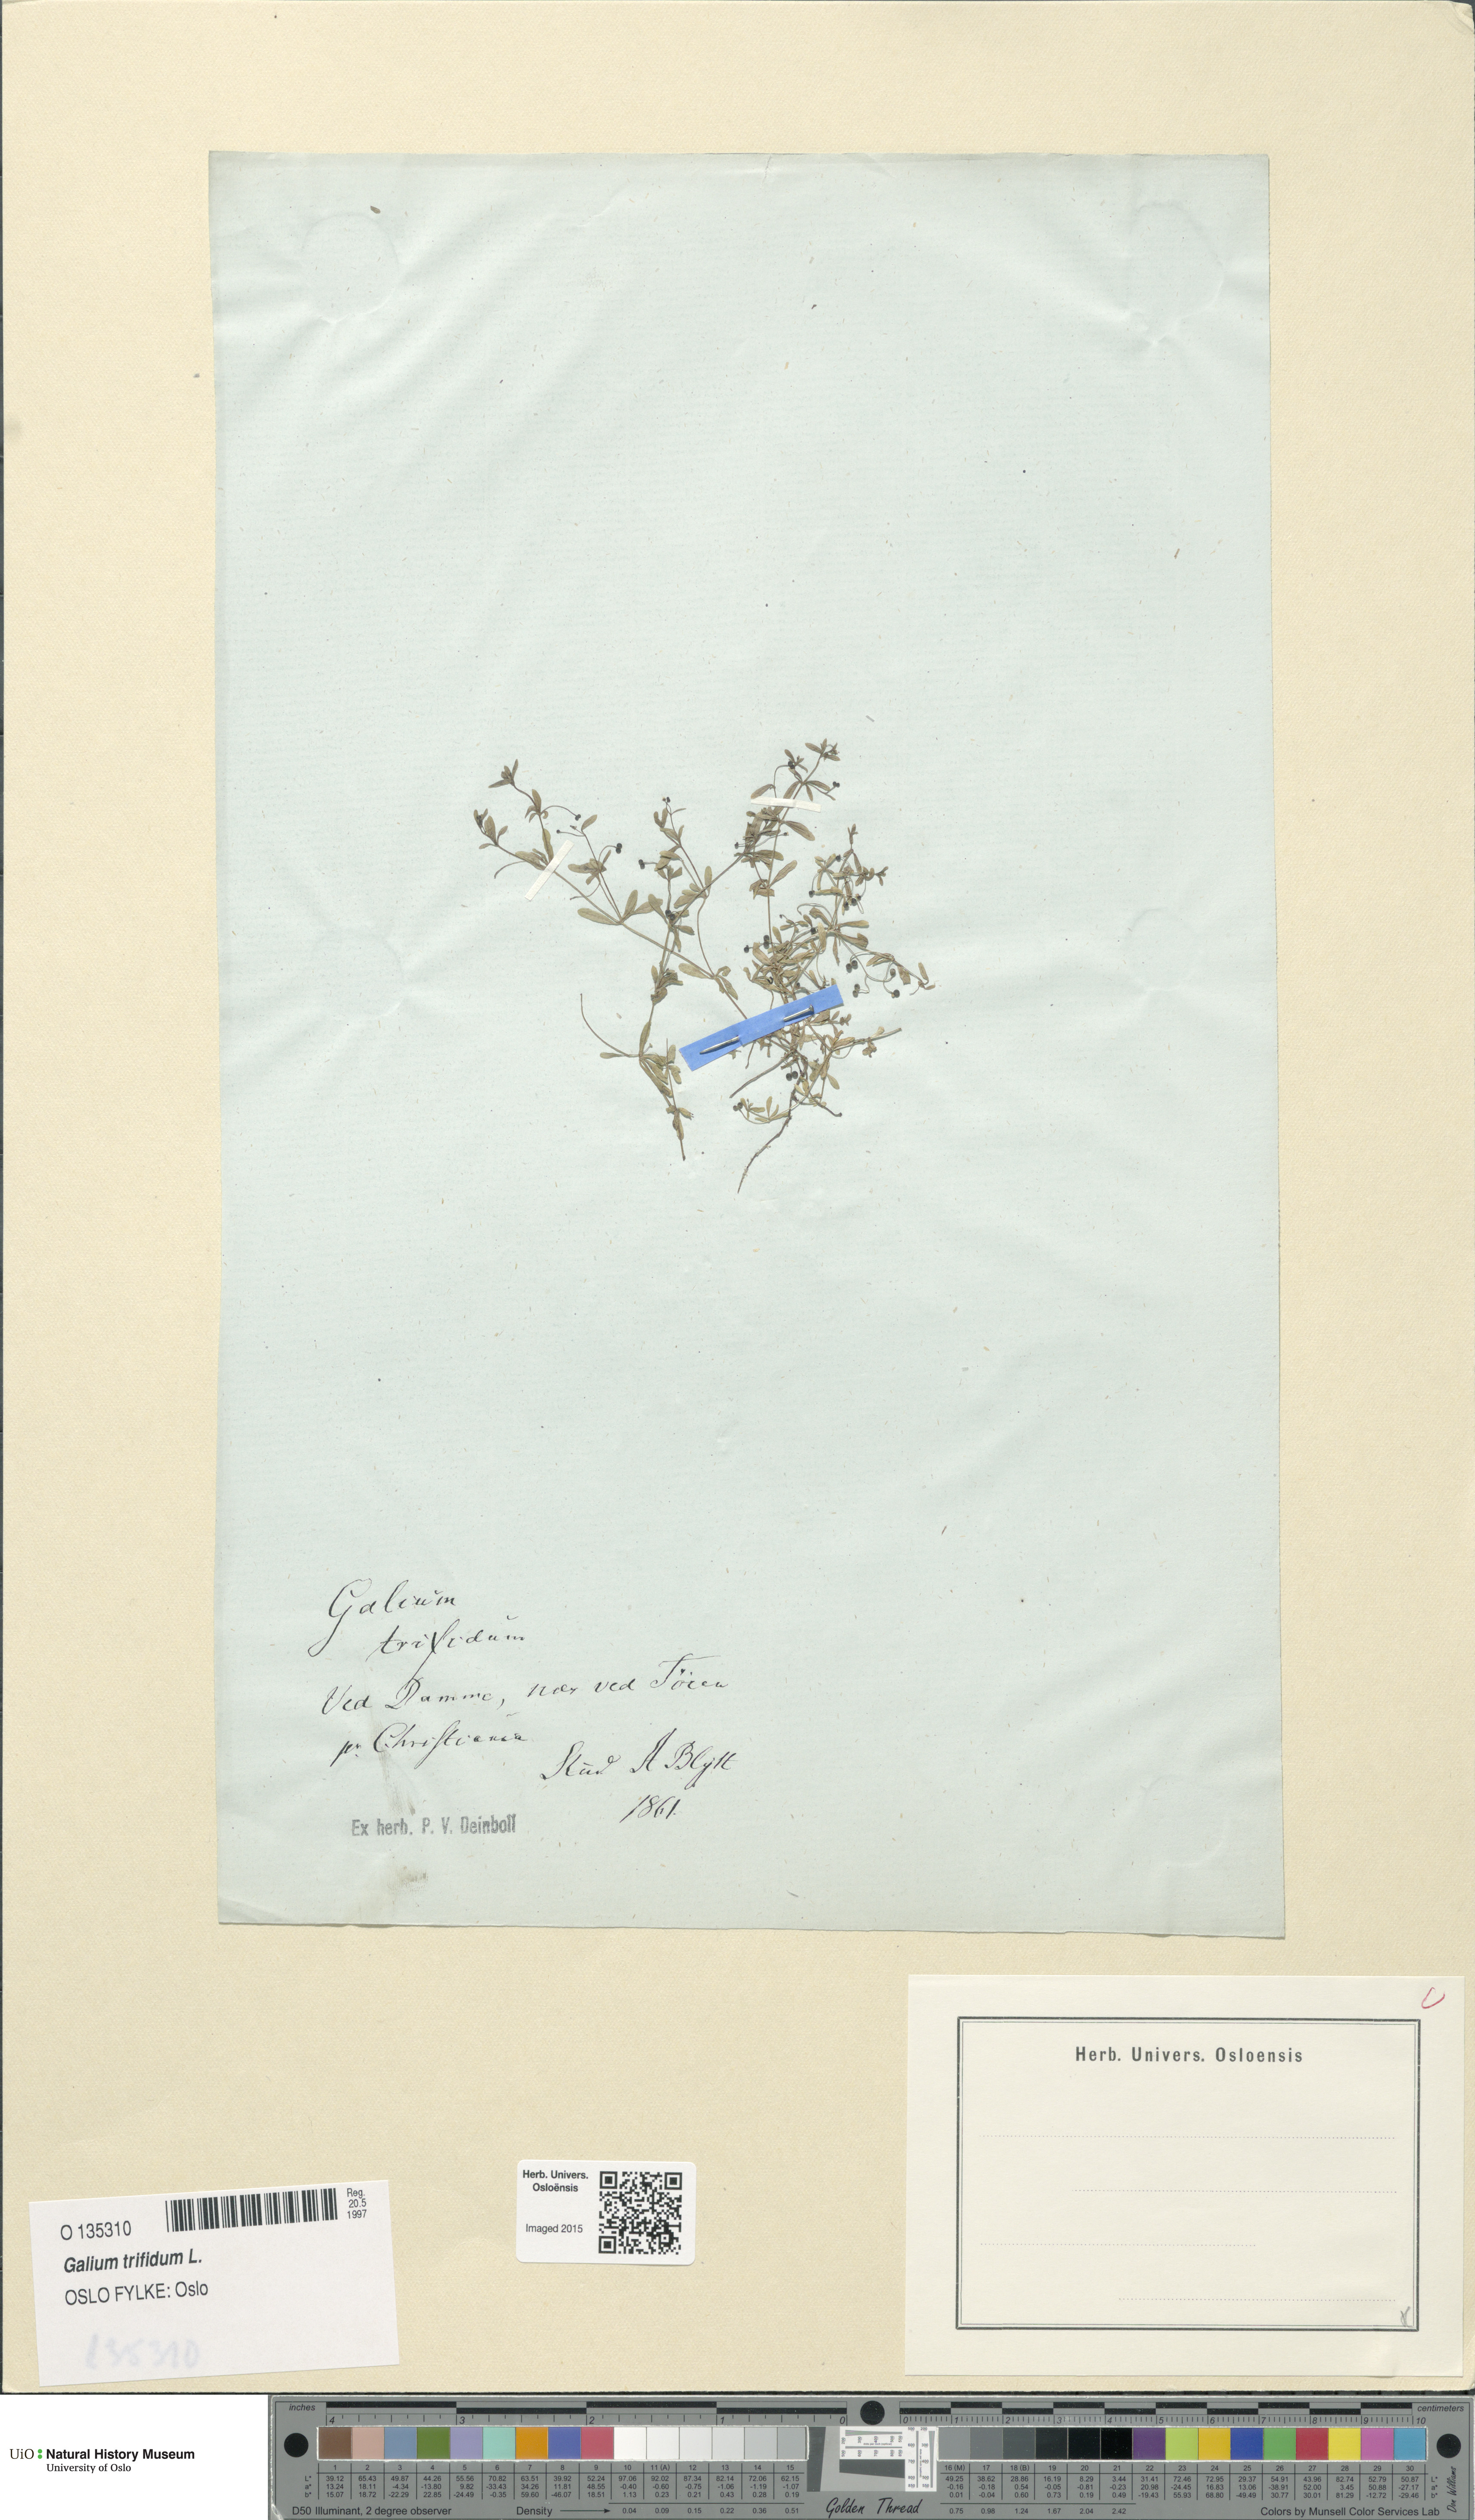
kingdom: Plantae
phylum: Tracheophyta
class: Magnoliopsida
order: Gentianales
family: Rubiaceae
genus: Galium
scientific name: Galium trifidum
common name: Small bedstraw
